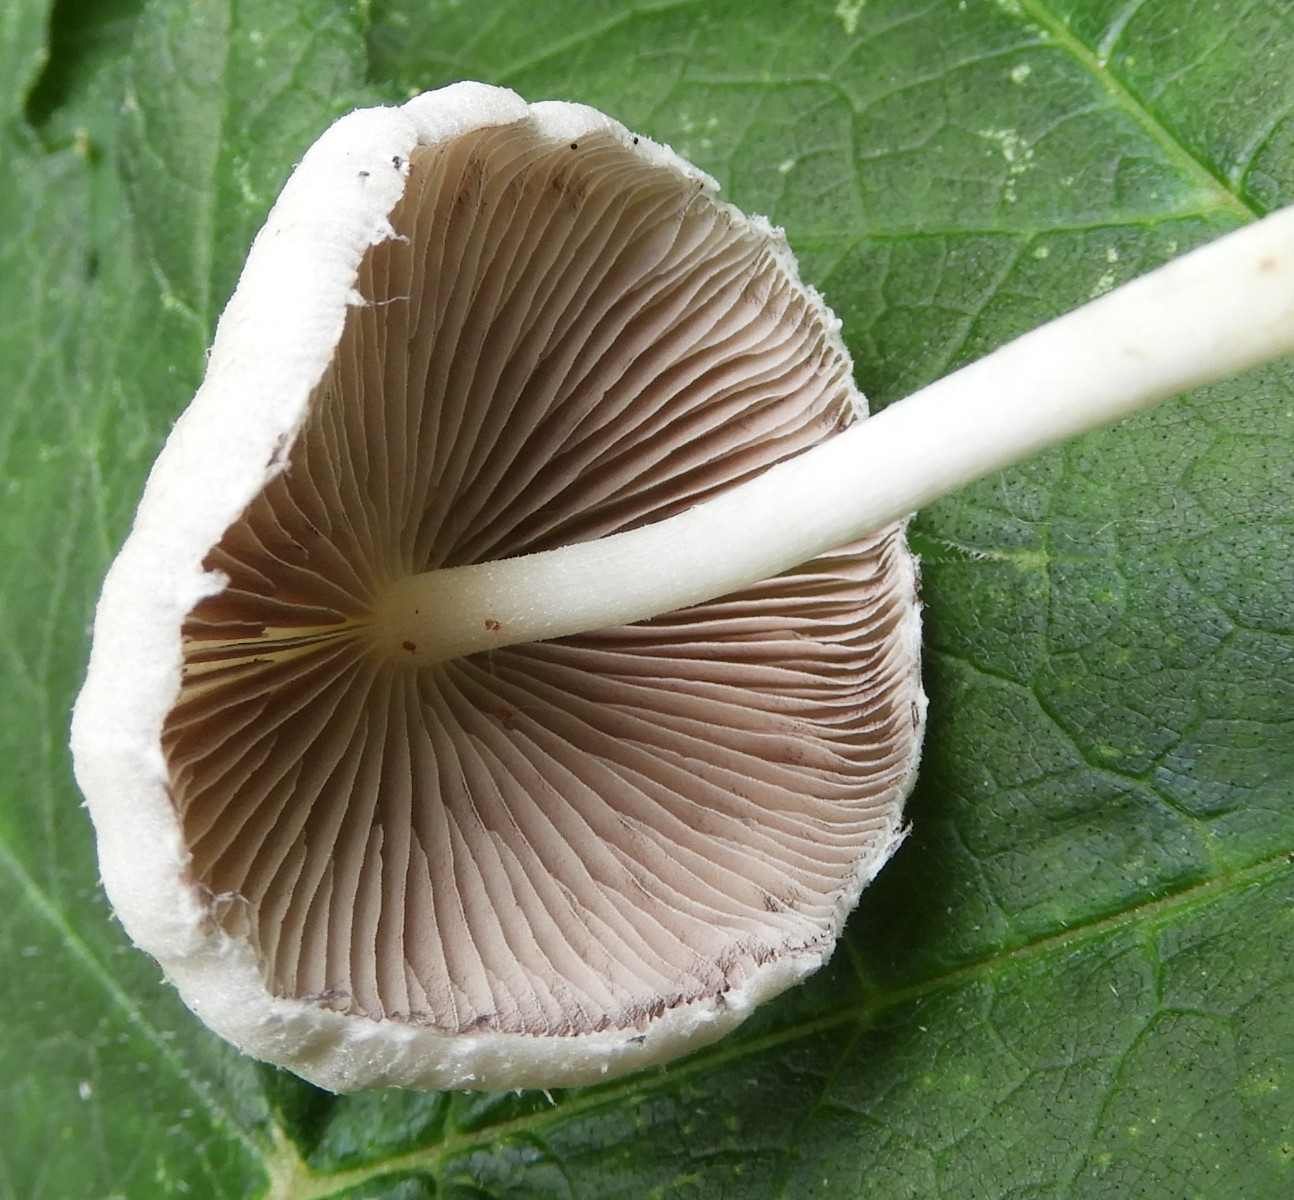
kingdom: Fungi
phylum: Basidiomycota
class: Agaricomycetes
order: Agaricales
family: Psathyrellaceae
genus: Candolleomyces
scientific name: Candolleomyces candolleanus
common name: Candolles mørkhat
